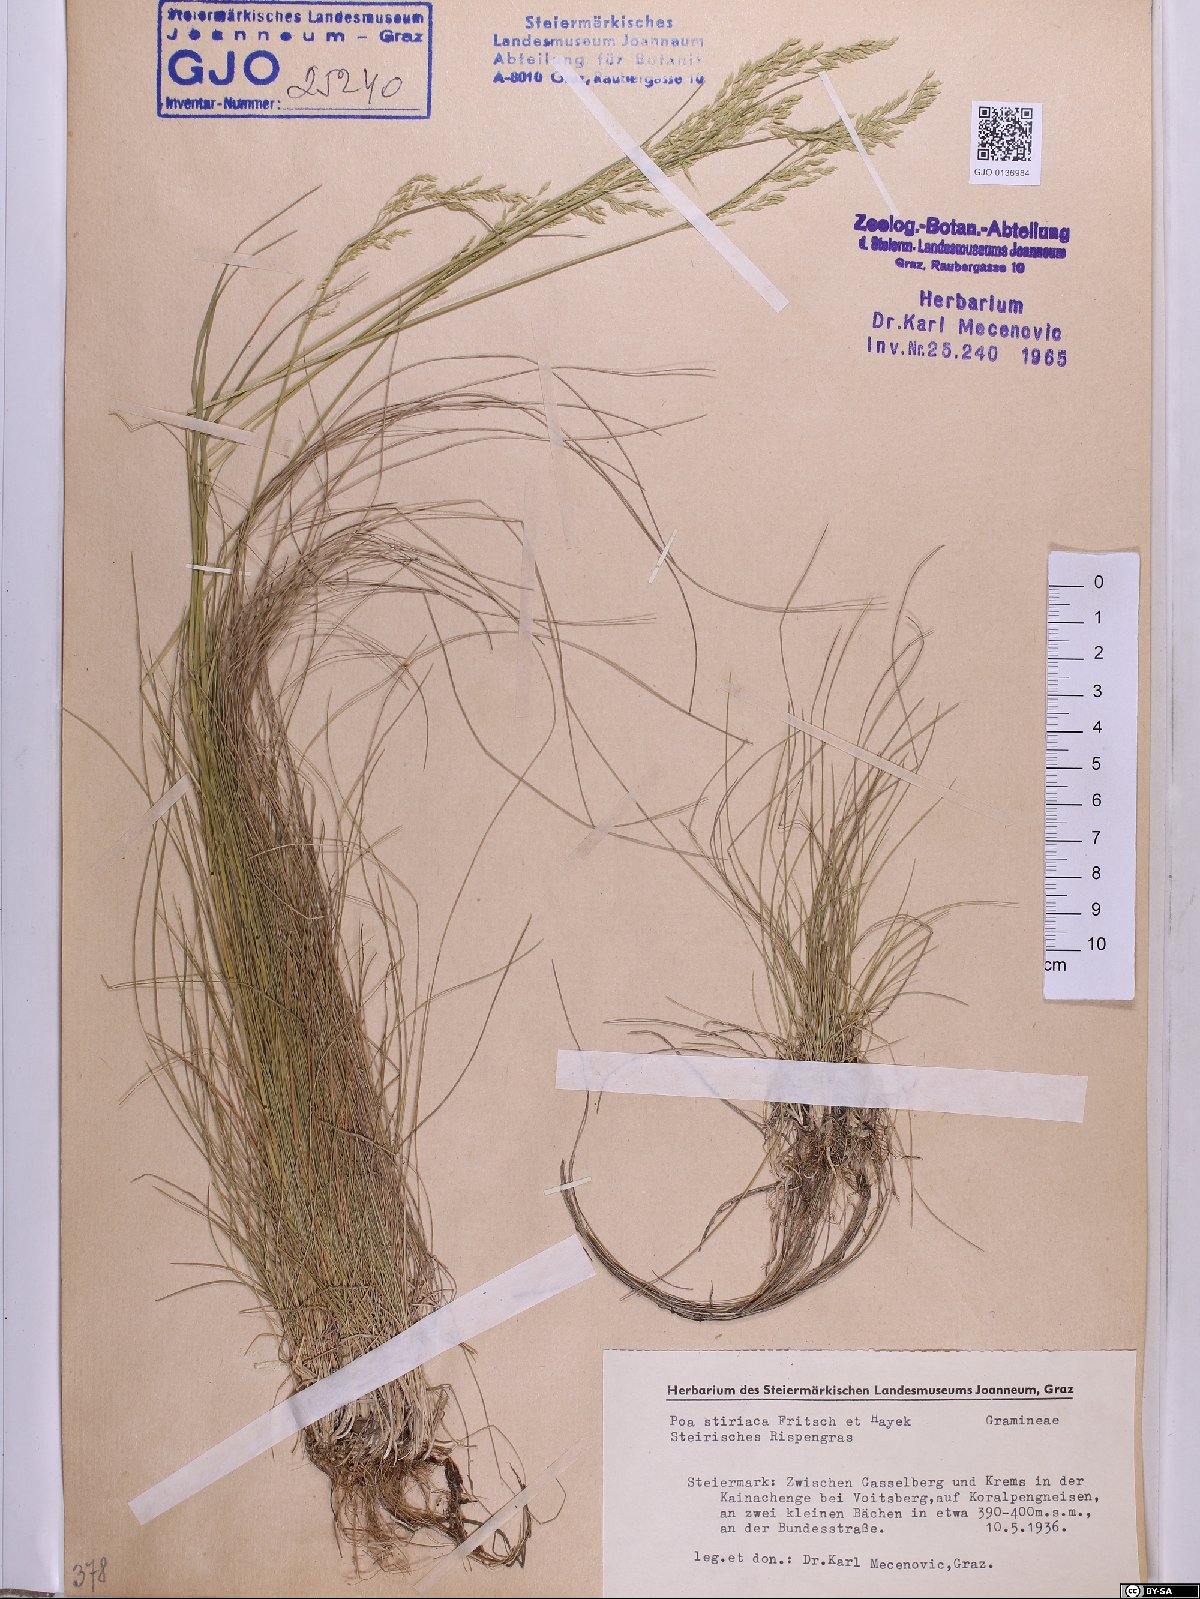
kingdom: Plantae
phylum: Tracheophyta
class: Liliopsida
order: Poales
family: Poaceae
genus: Poa
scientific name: Poa stiriaca
